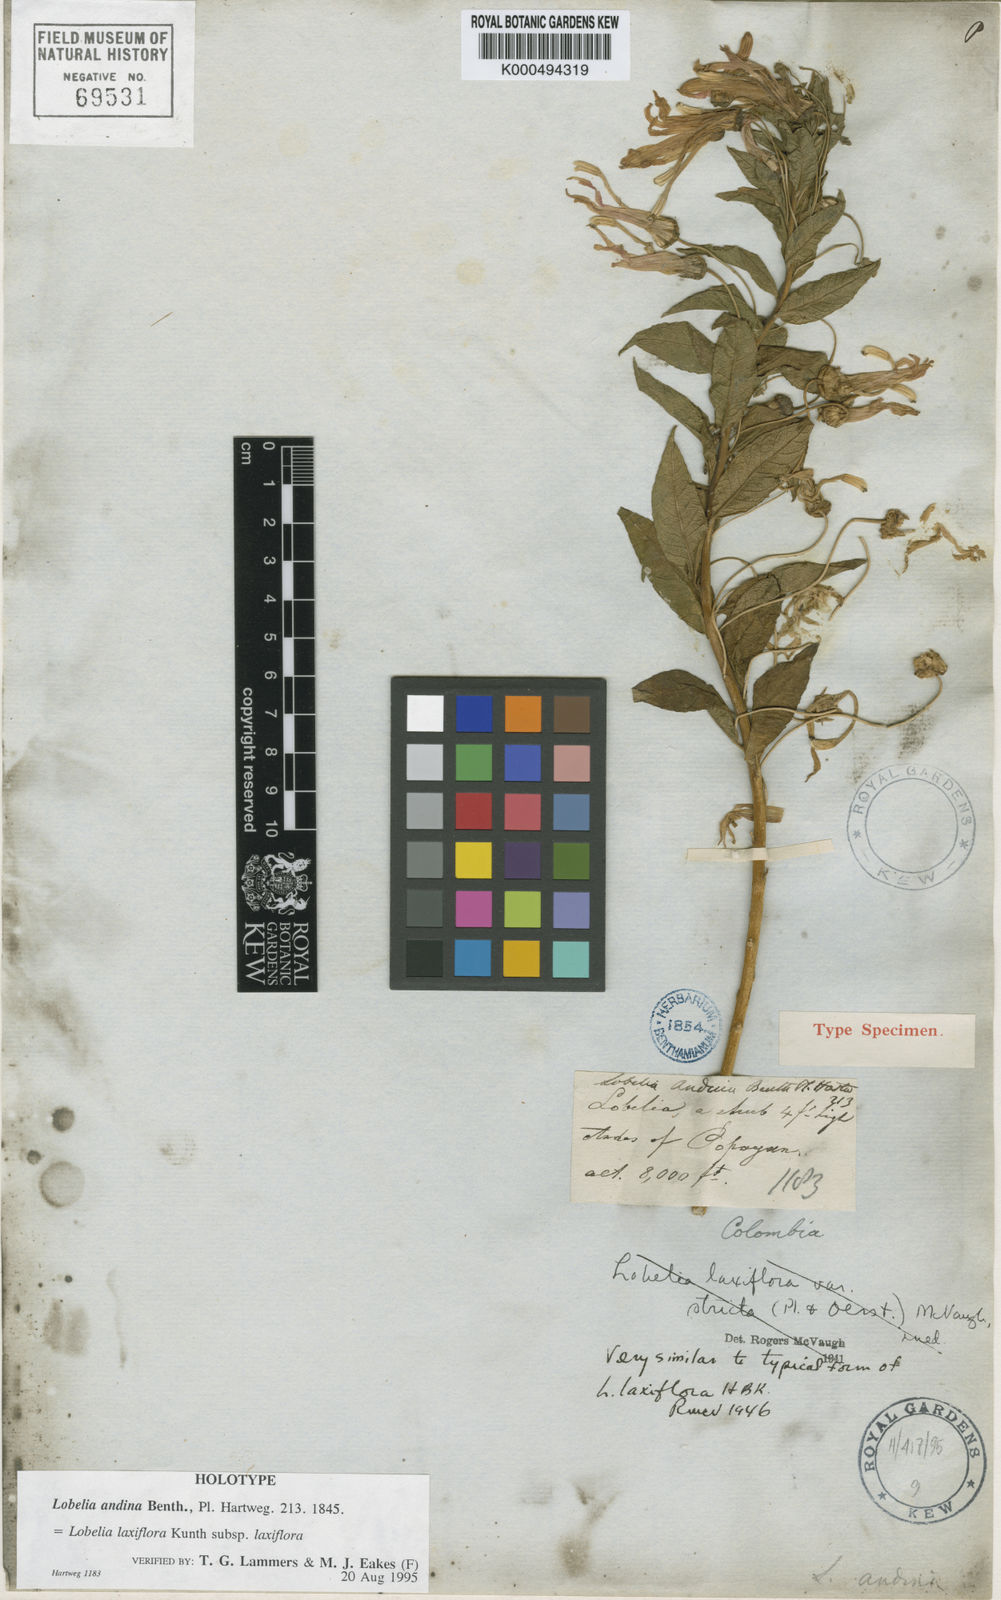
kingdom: Plantae
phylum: Tracheophyta
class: Magnoliopsida
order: Asterales
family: Campanulaceae
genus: Lobelia
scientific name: Lobelia laxiflora
